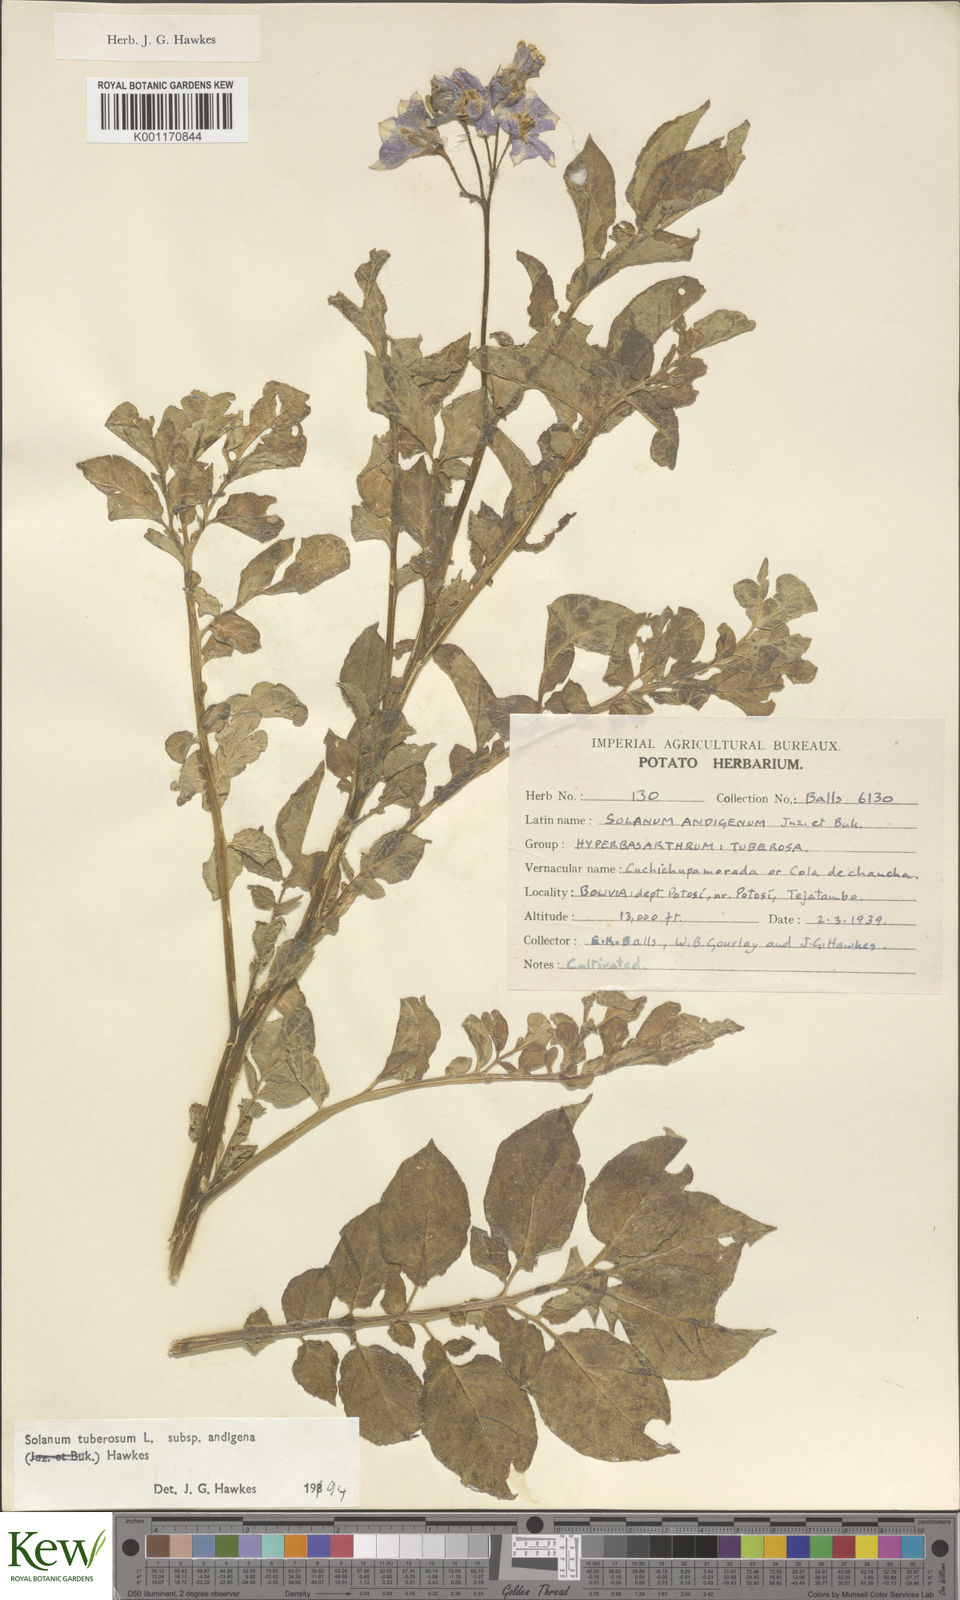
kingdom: Plantae
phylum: Tracheophyta
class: Magnoliopsida
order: Solanales
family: Solanaceae
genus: Solanum
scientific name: Solanum tuberosum
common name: Potato
